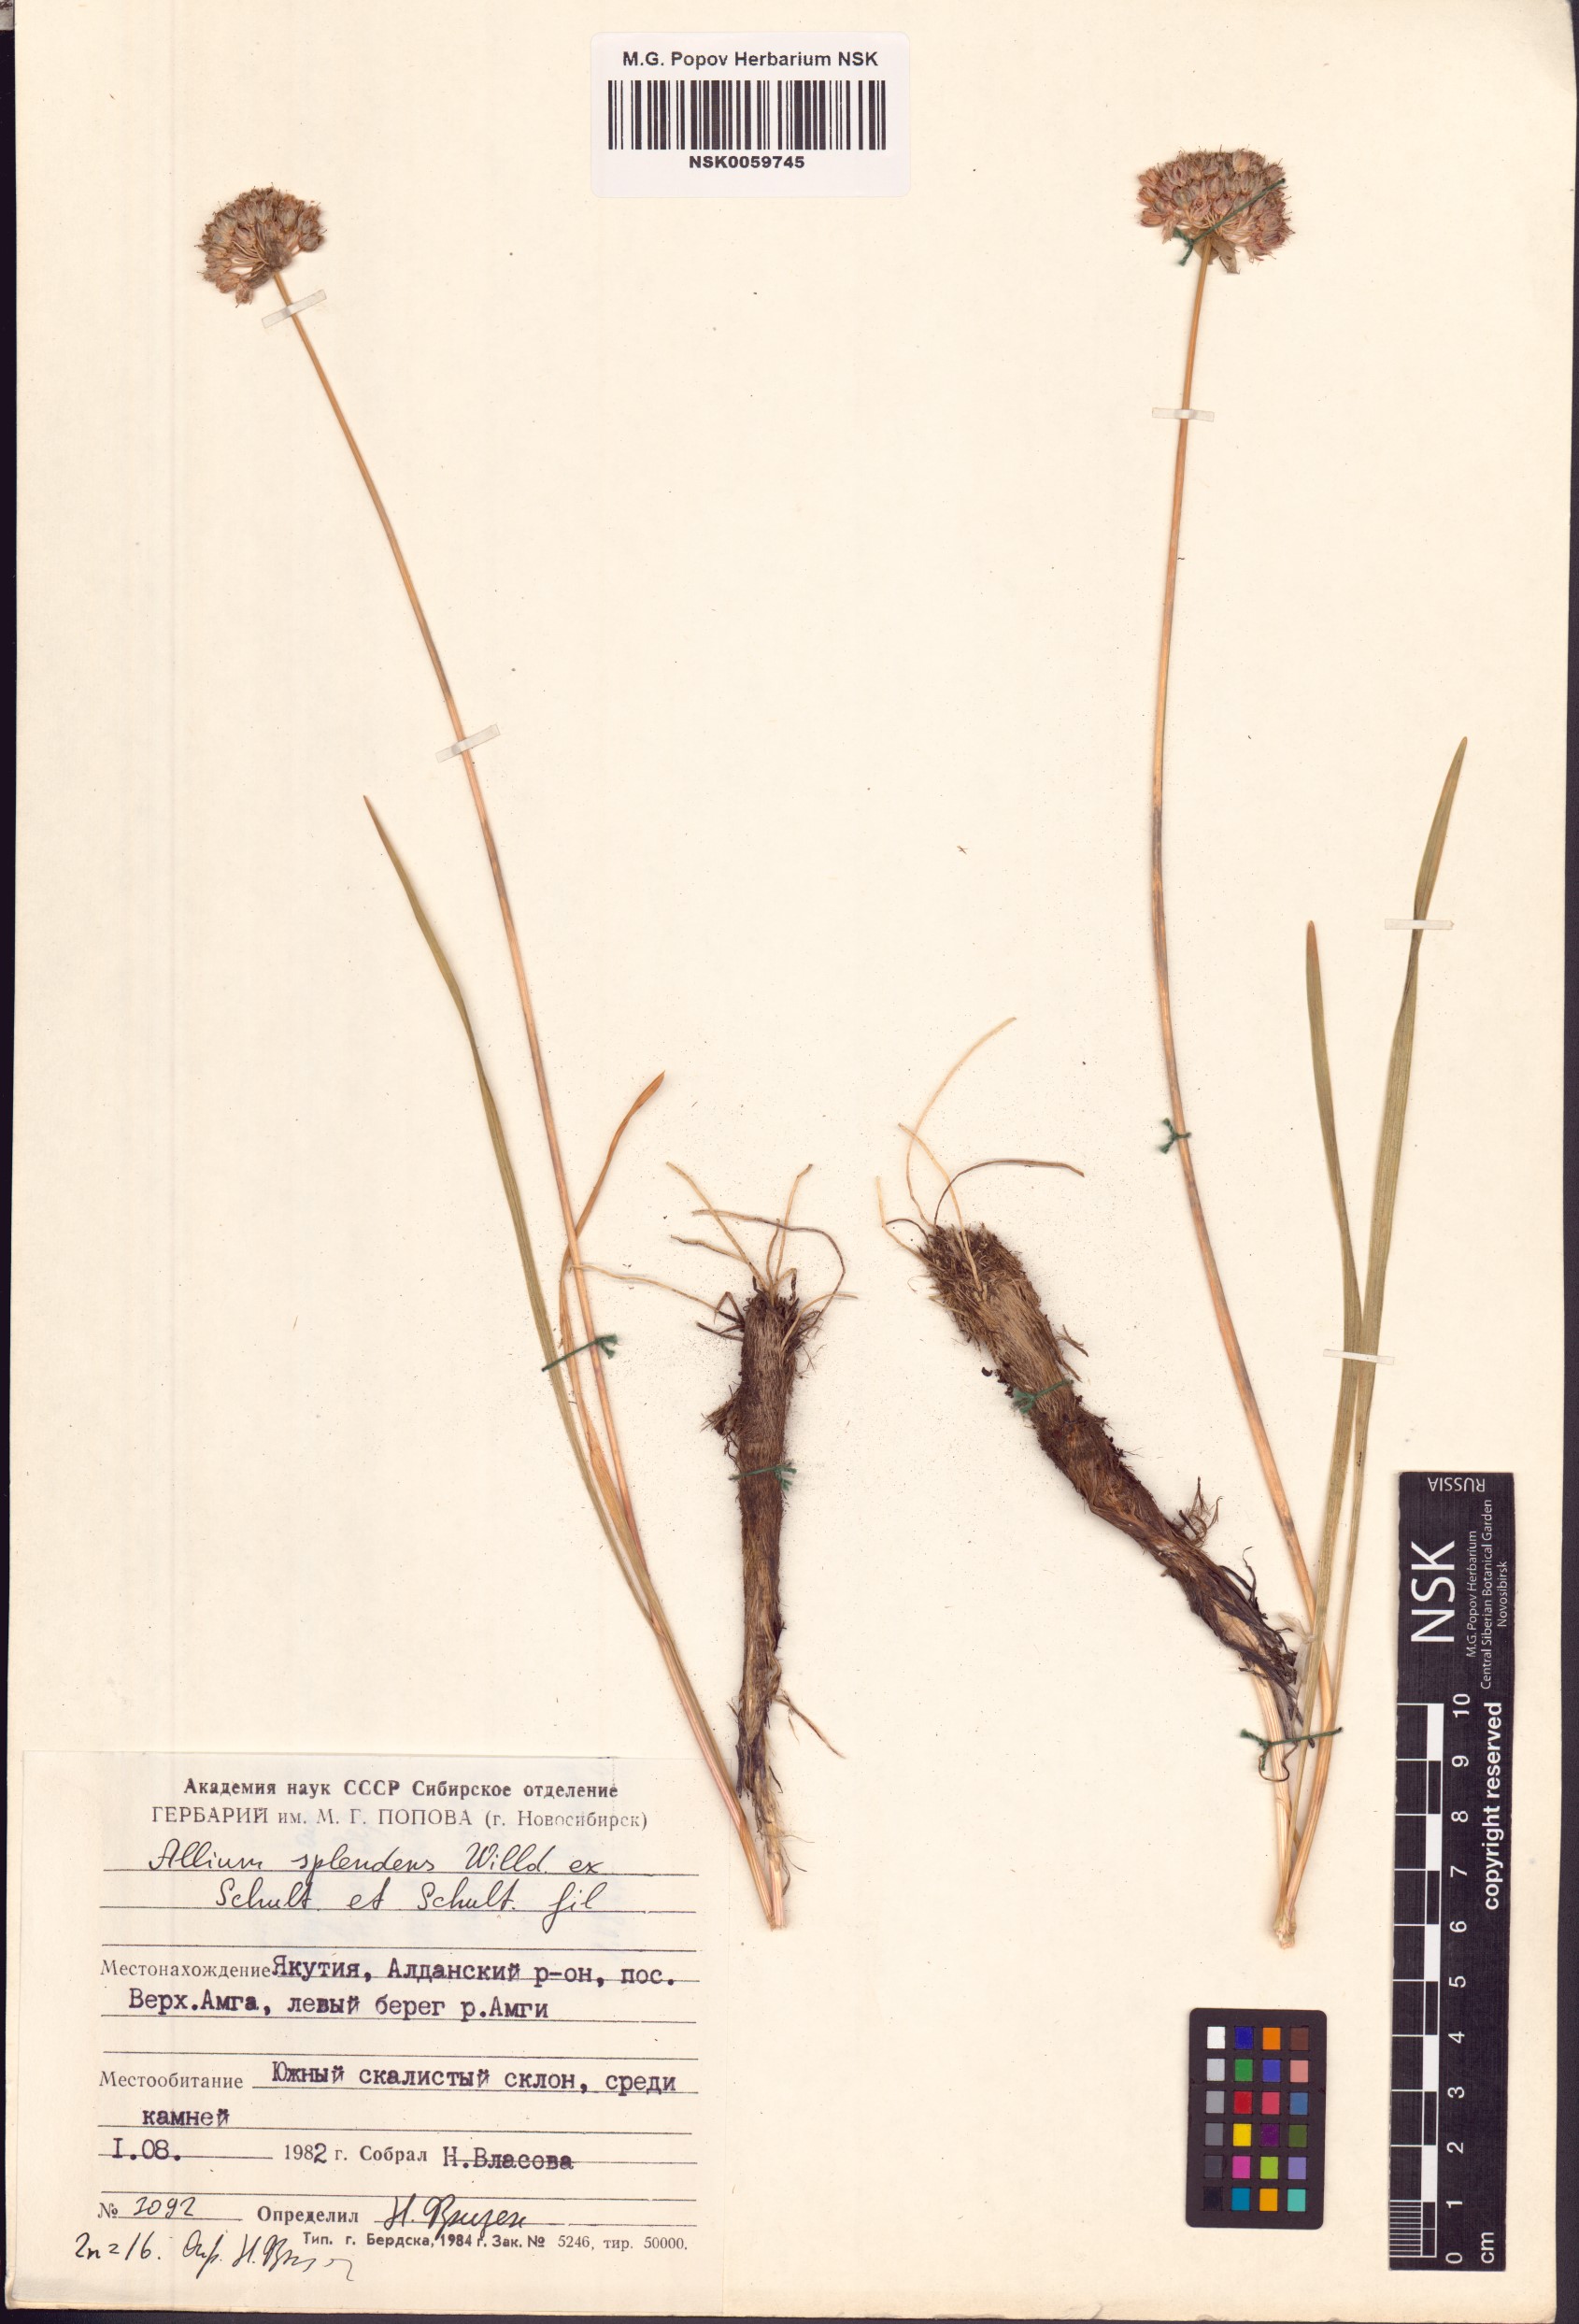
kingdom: Plantae
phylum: Tracheophyta
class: Liliopsida
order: Asparagales
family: Amaryllidaceae
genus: Allium
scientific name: Allium splendens
